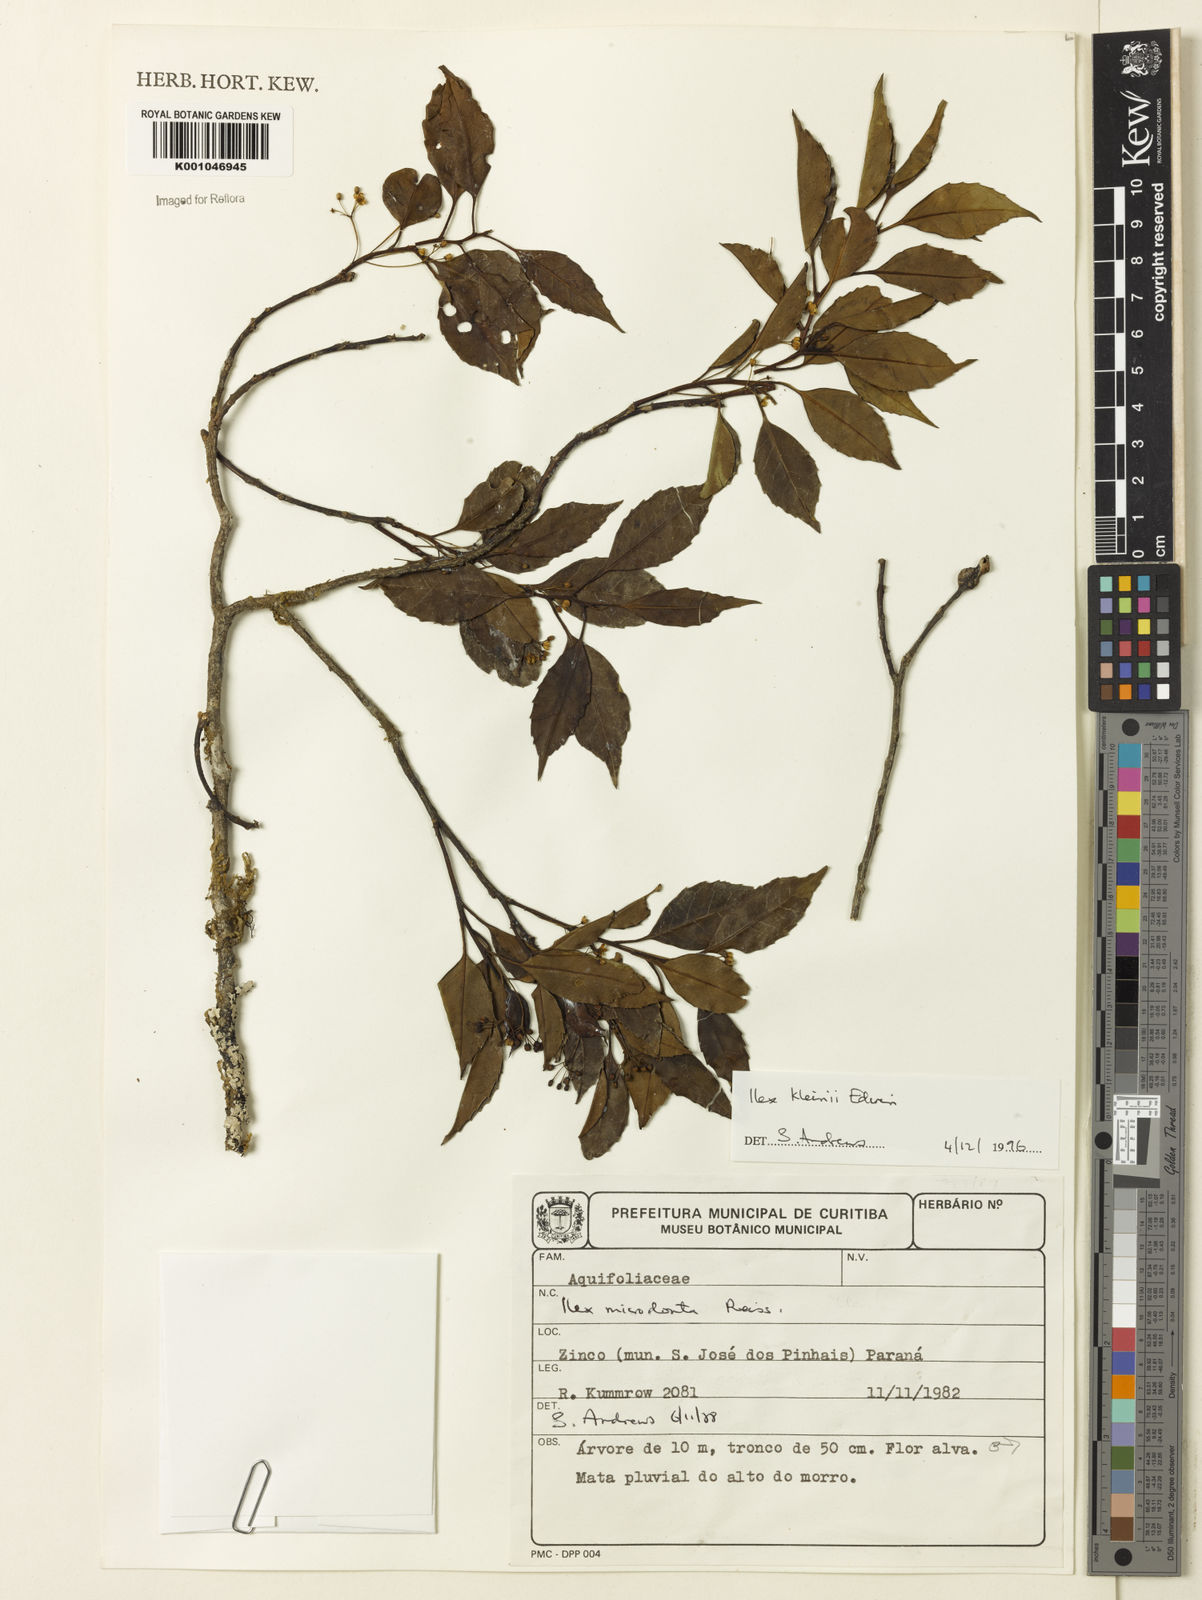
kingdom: Plantae
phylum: Tracheophyta
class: Magnoliopsida
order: Aquifoliales
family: Aquifoliaceae
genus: Ilex
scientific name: Ilex taubertiana
